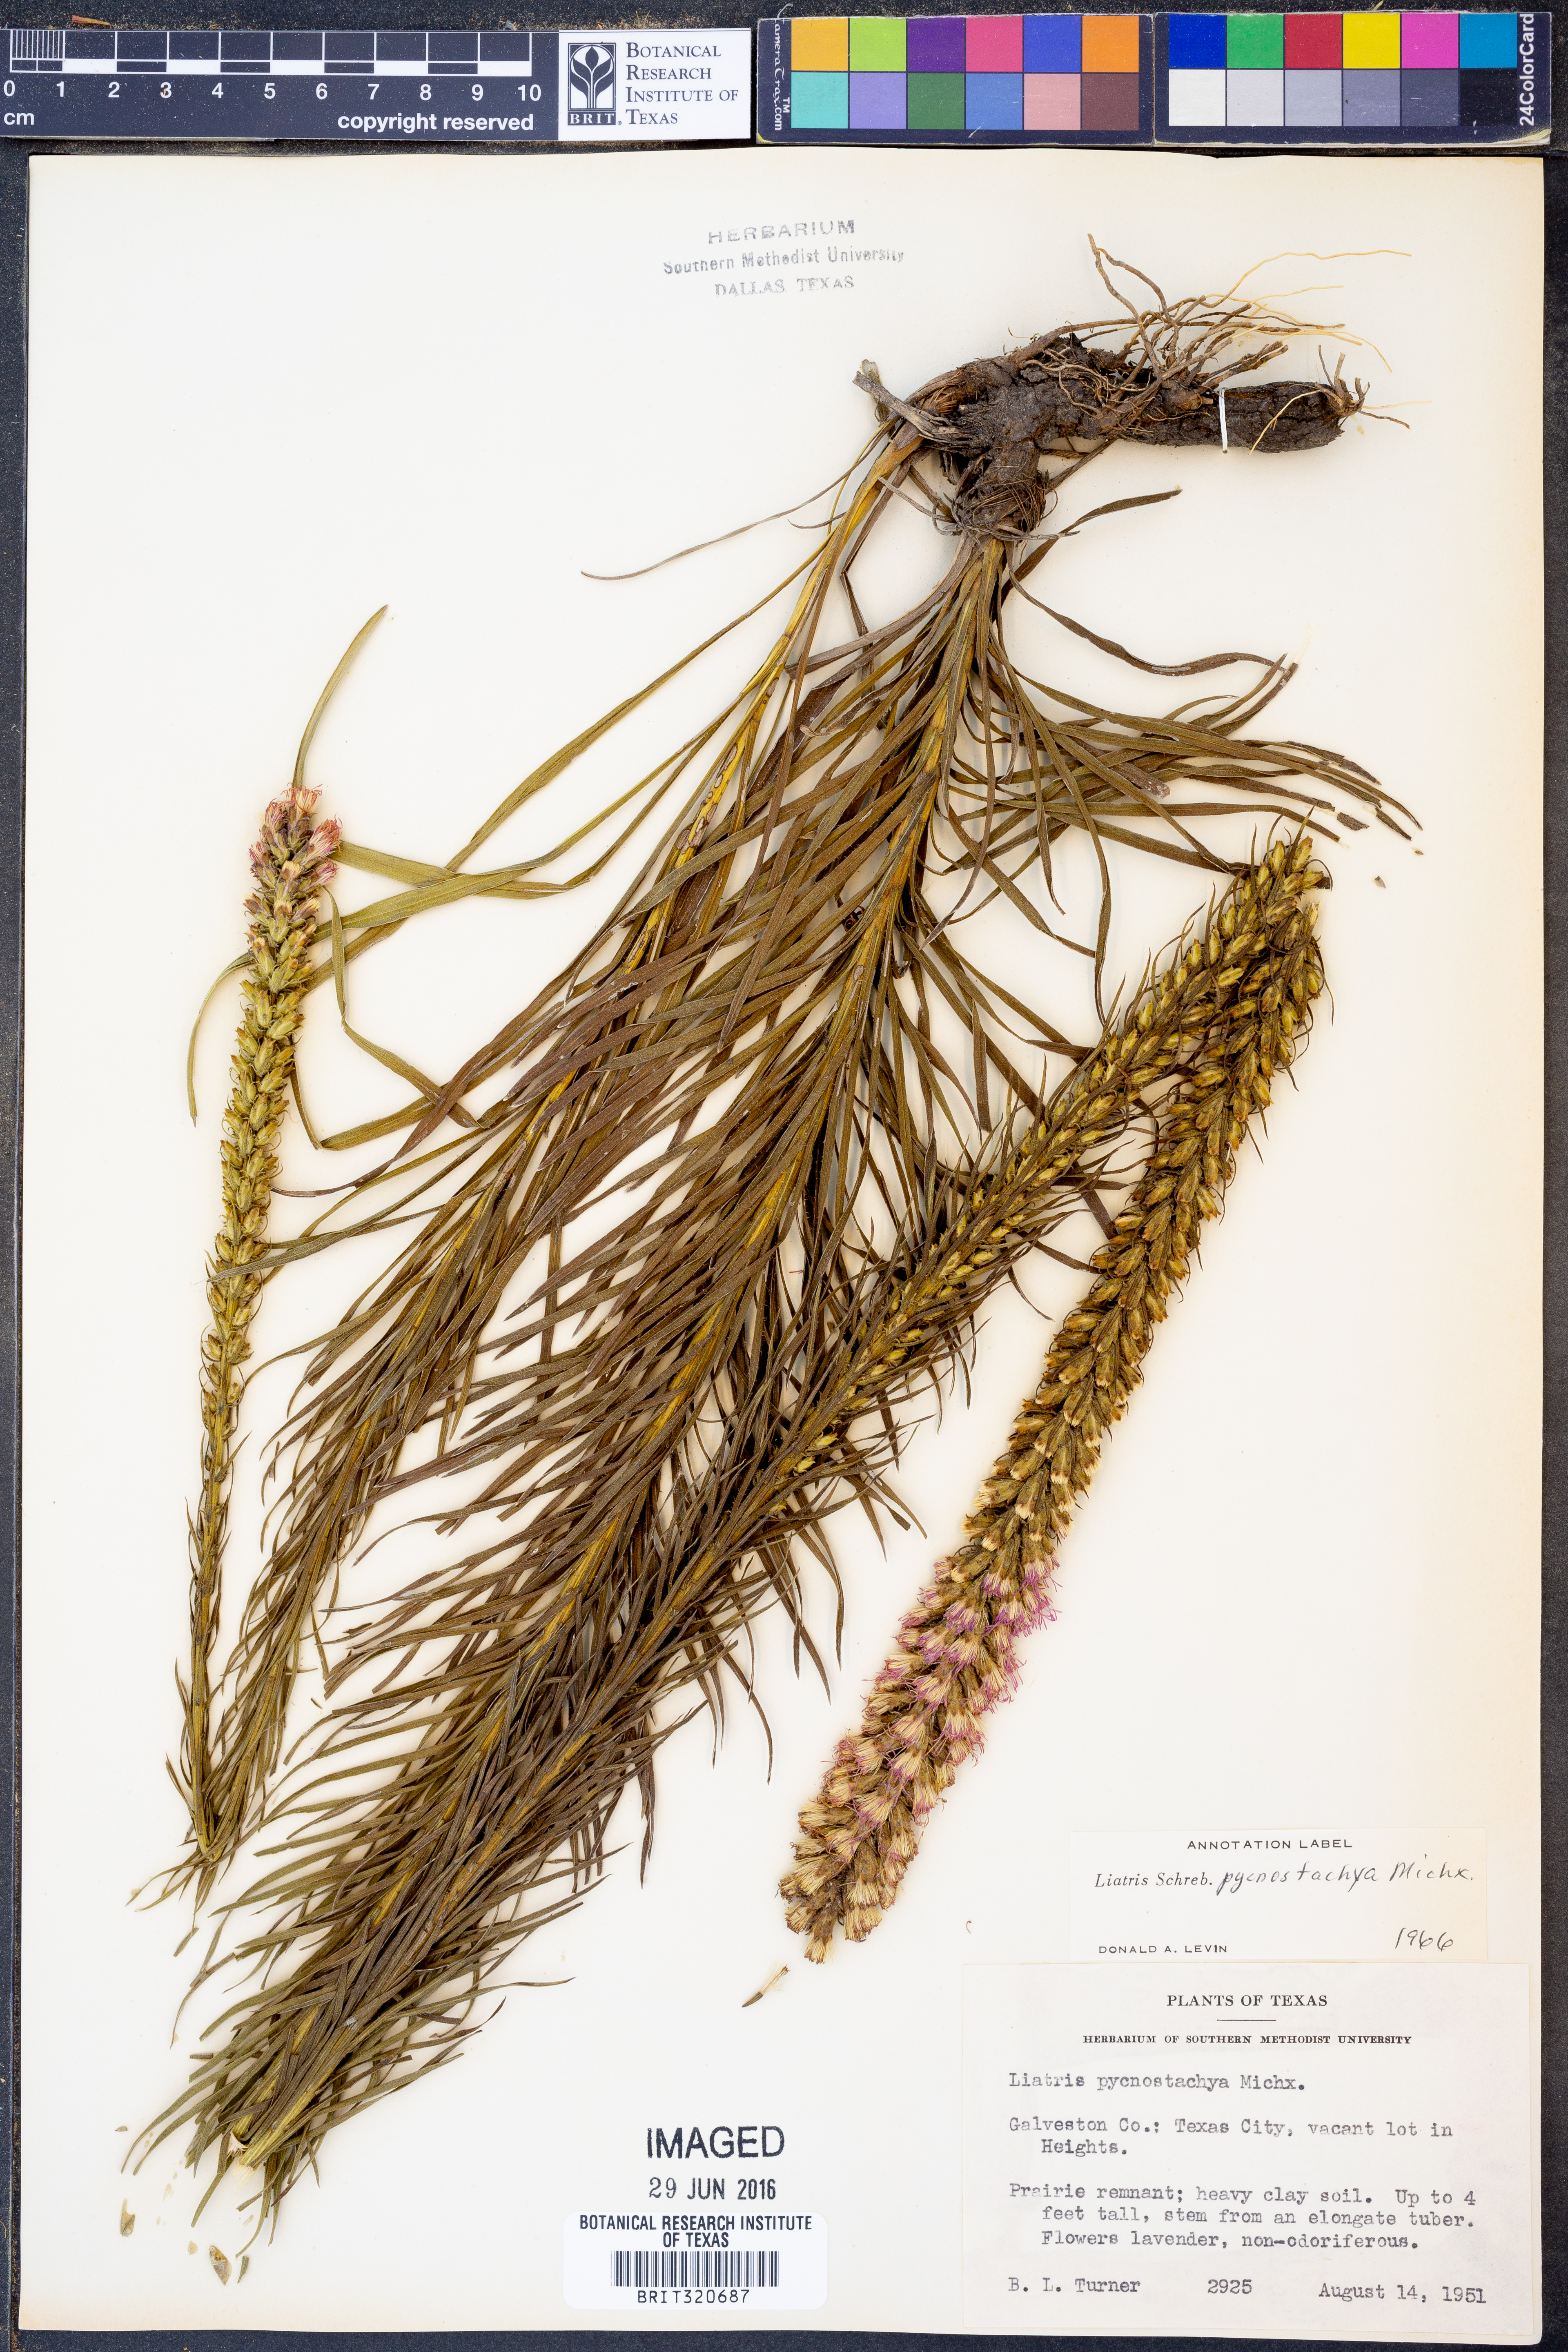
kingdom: Plantae
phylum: Tracheophyta
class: Magnoliopsida
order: Asterales
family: Asteraceae
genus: Liatris
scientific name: Liatris pycnostachya
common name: Cattail gayfeather
